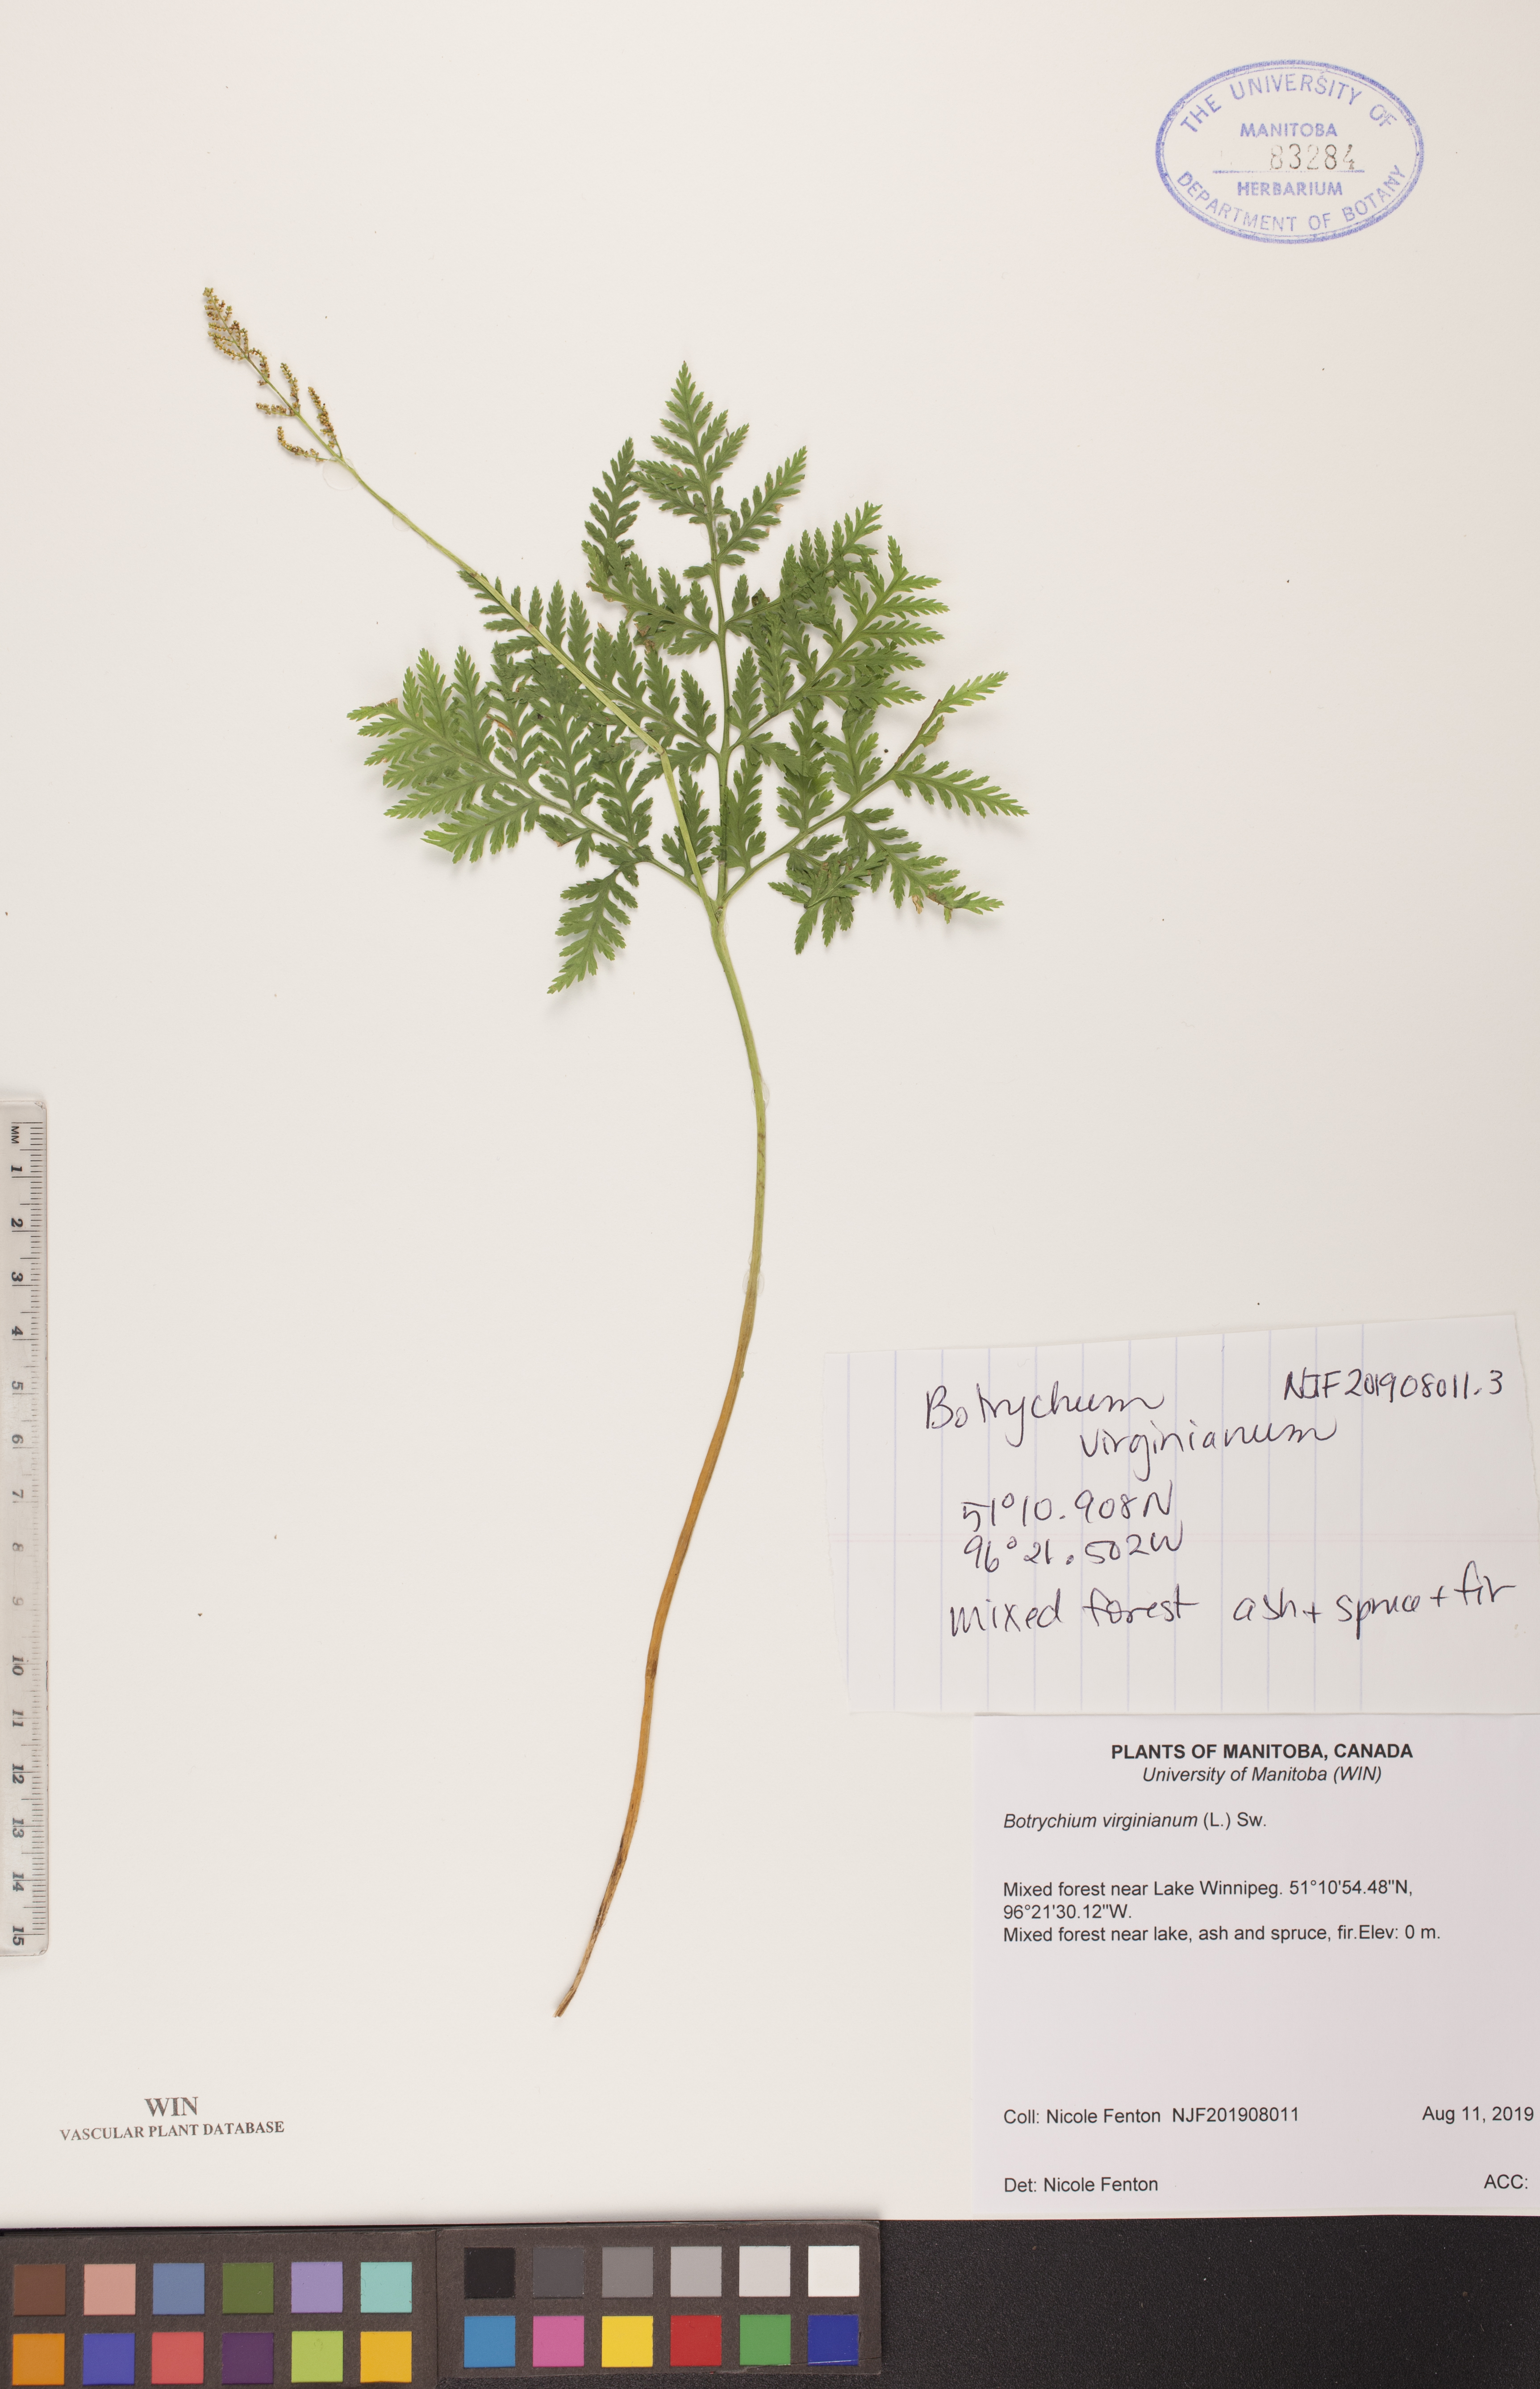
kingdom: Plantae
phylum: Tracheophyta
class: Polypodiopsida
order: Ophioglossales
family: Ophioglossaceae
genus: Botrypus
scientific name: Botrypus virginianus
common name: Common grapefern
